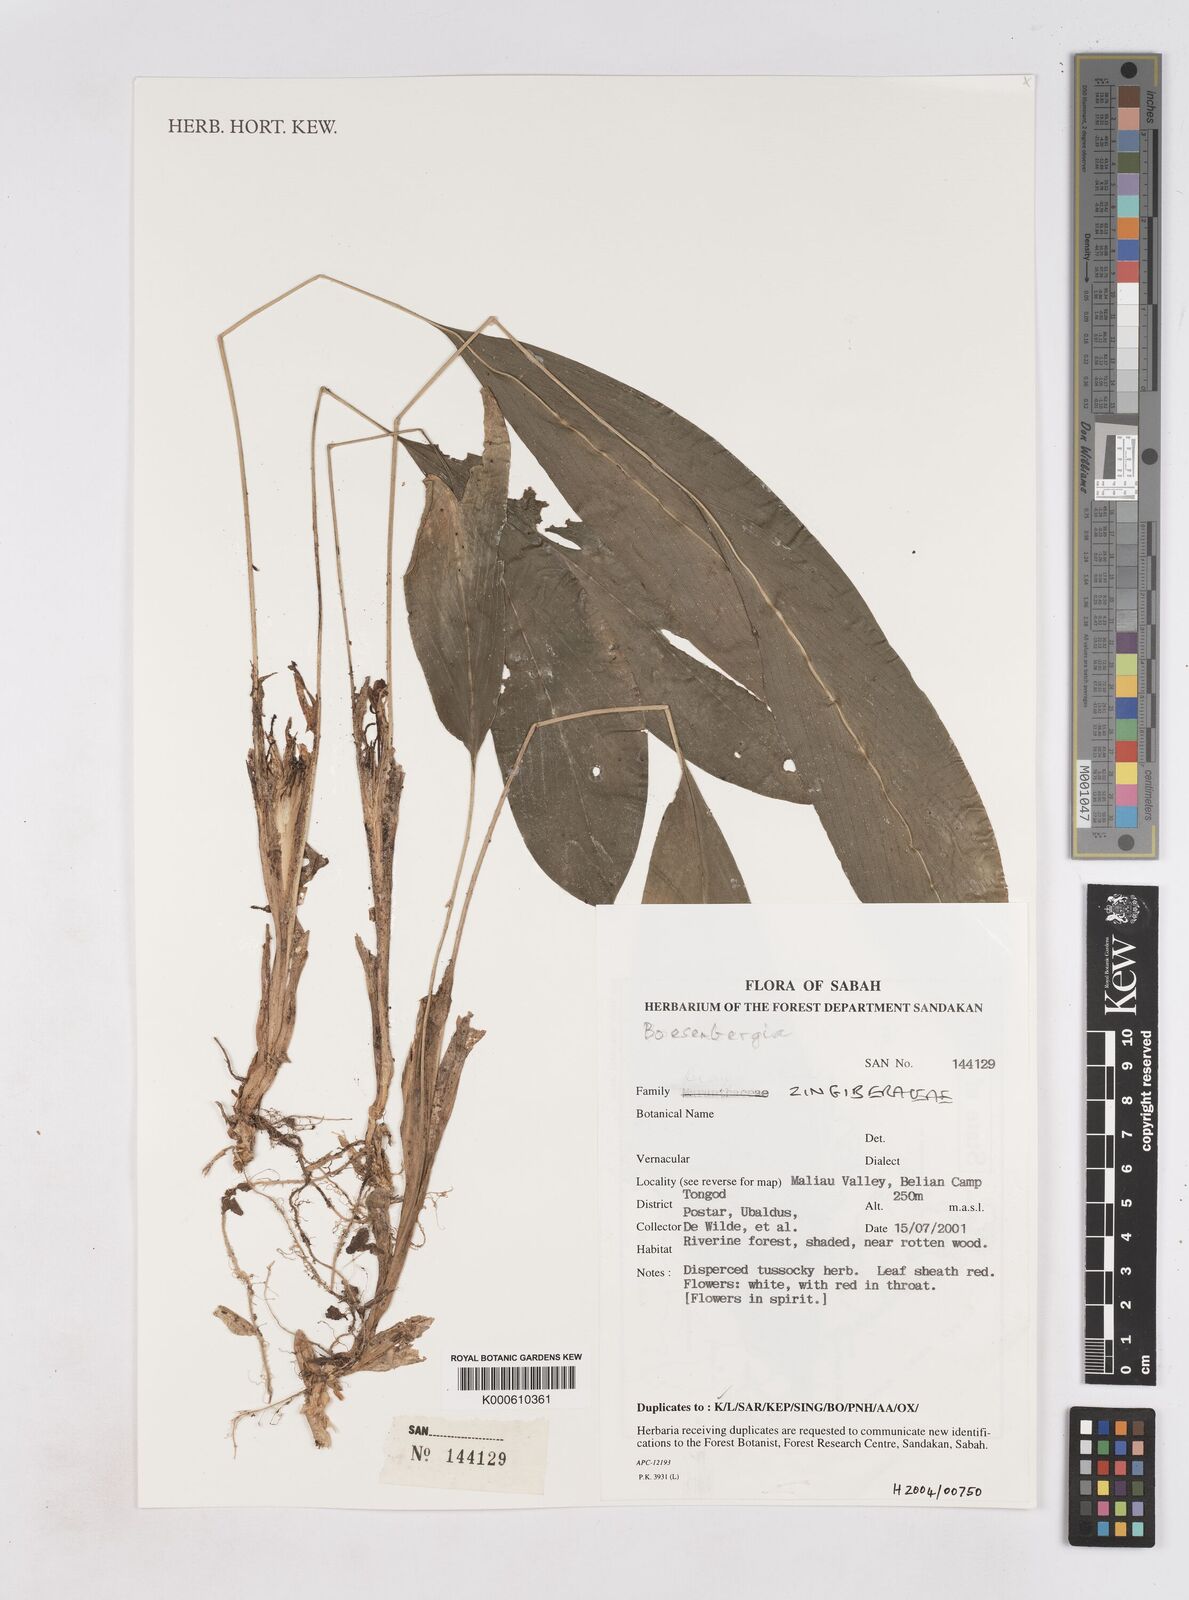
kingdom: Plantae
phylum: Tracheophyta
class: Liliopsida
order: Zingiberales
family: Zingiberaceae
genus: Boesenbergia
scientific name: Boesenbergia
